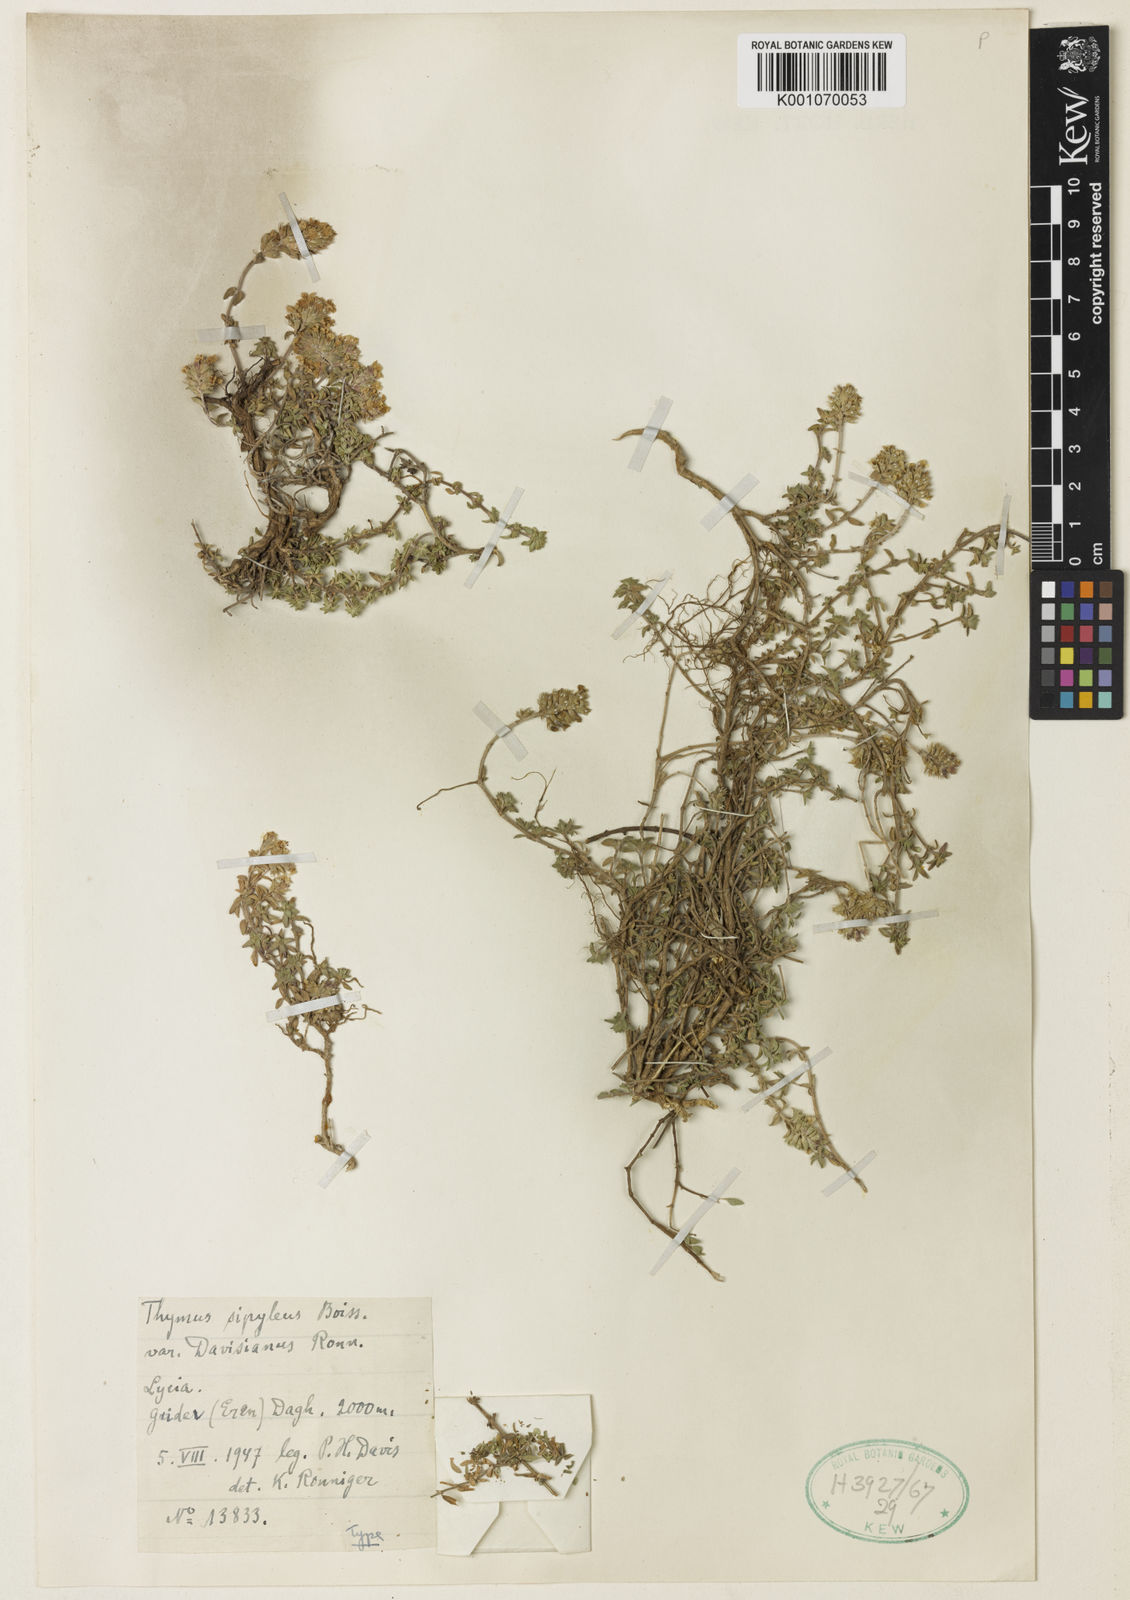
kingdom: Plantae
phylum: Tracheophyta
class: Magnoliopsida
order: Lamiales
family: Lamiaceae
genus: Thymus
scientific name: Thymus serpyllum
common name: Breckland thyme
